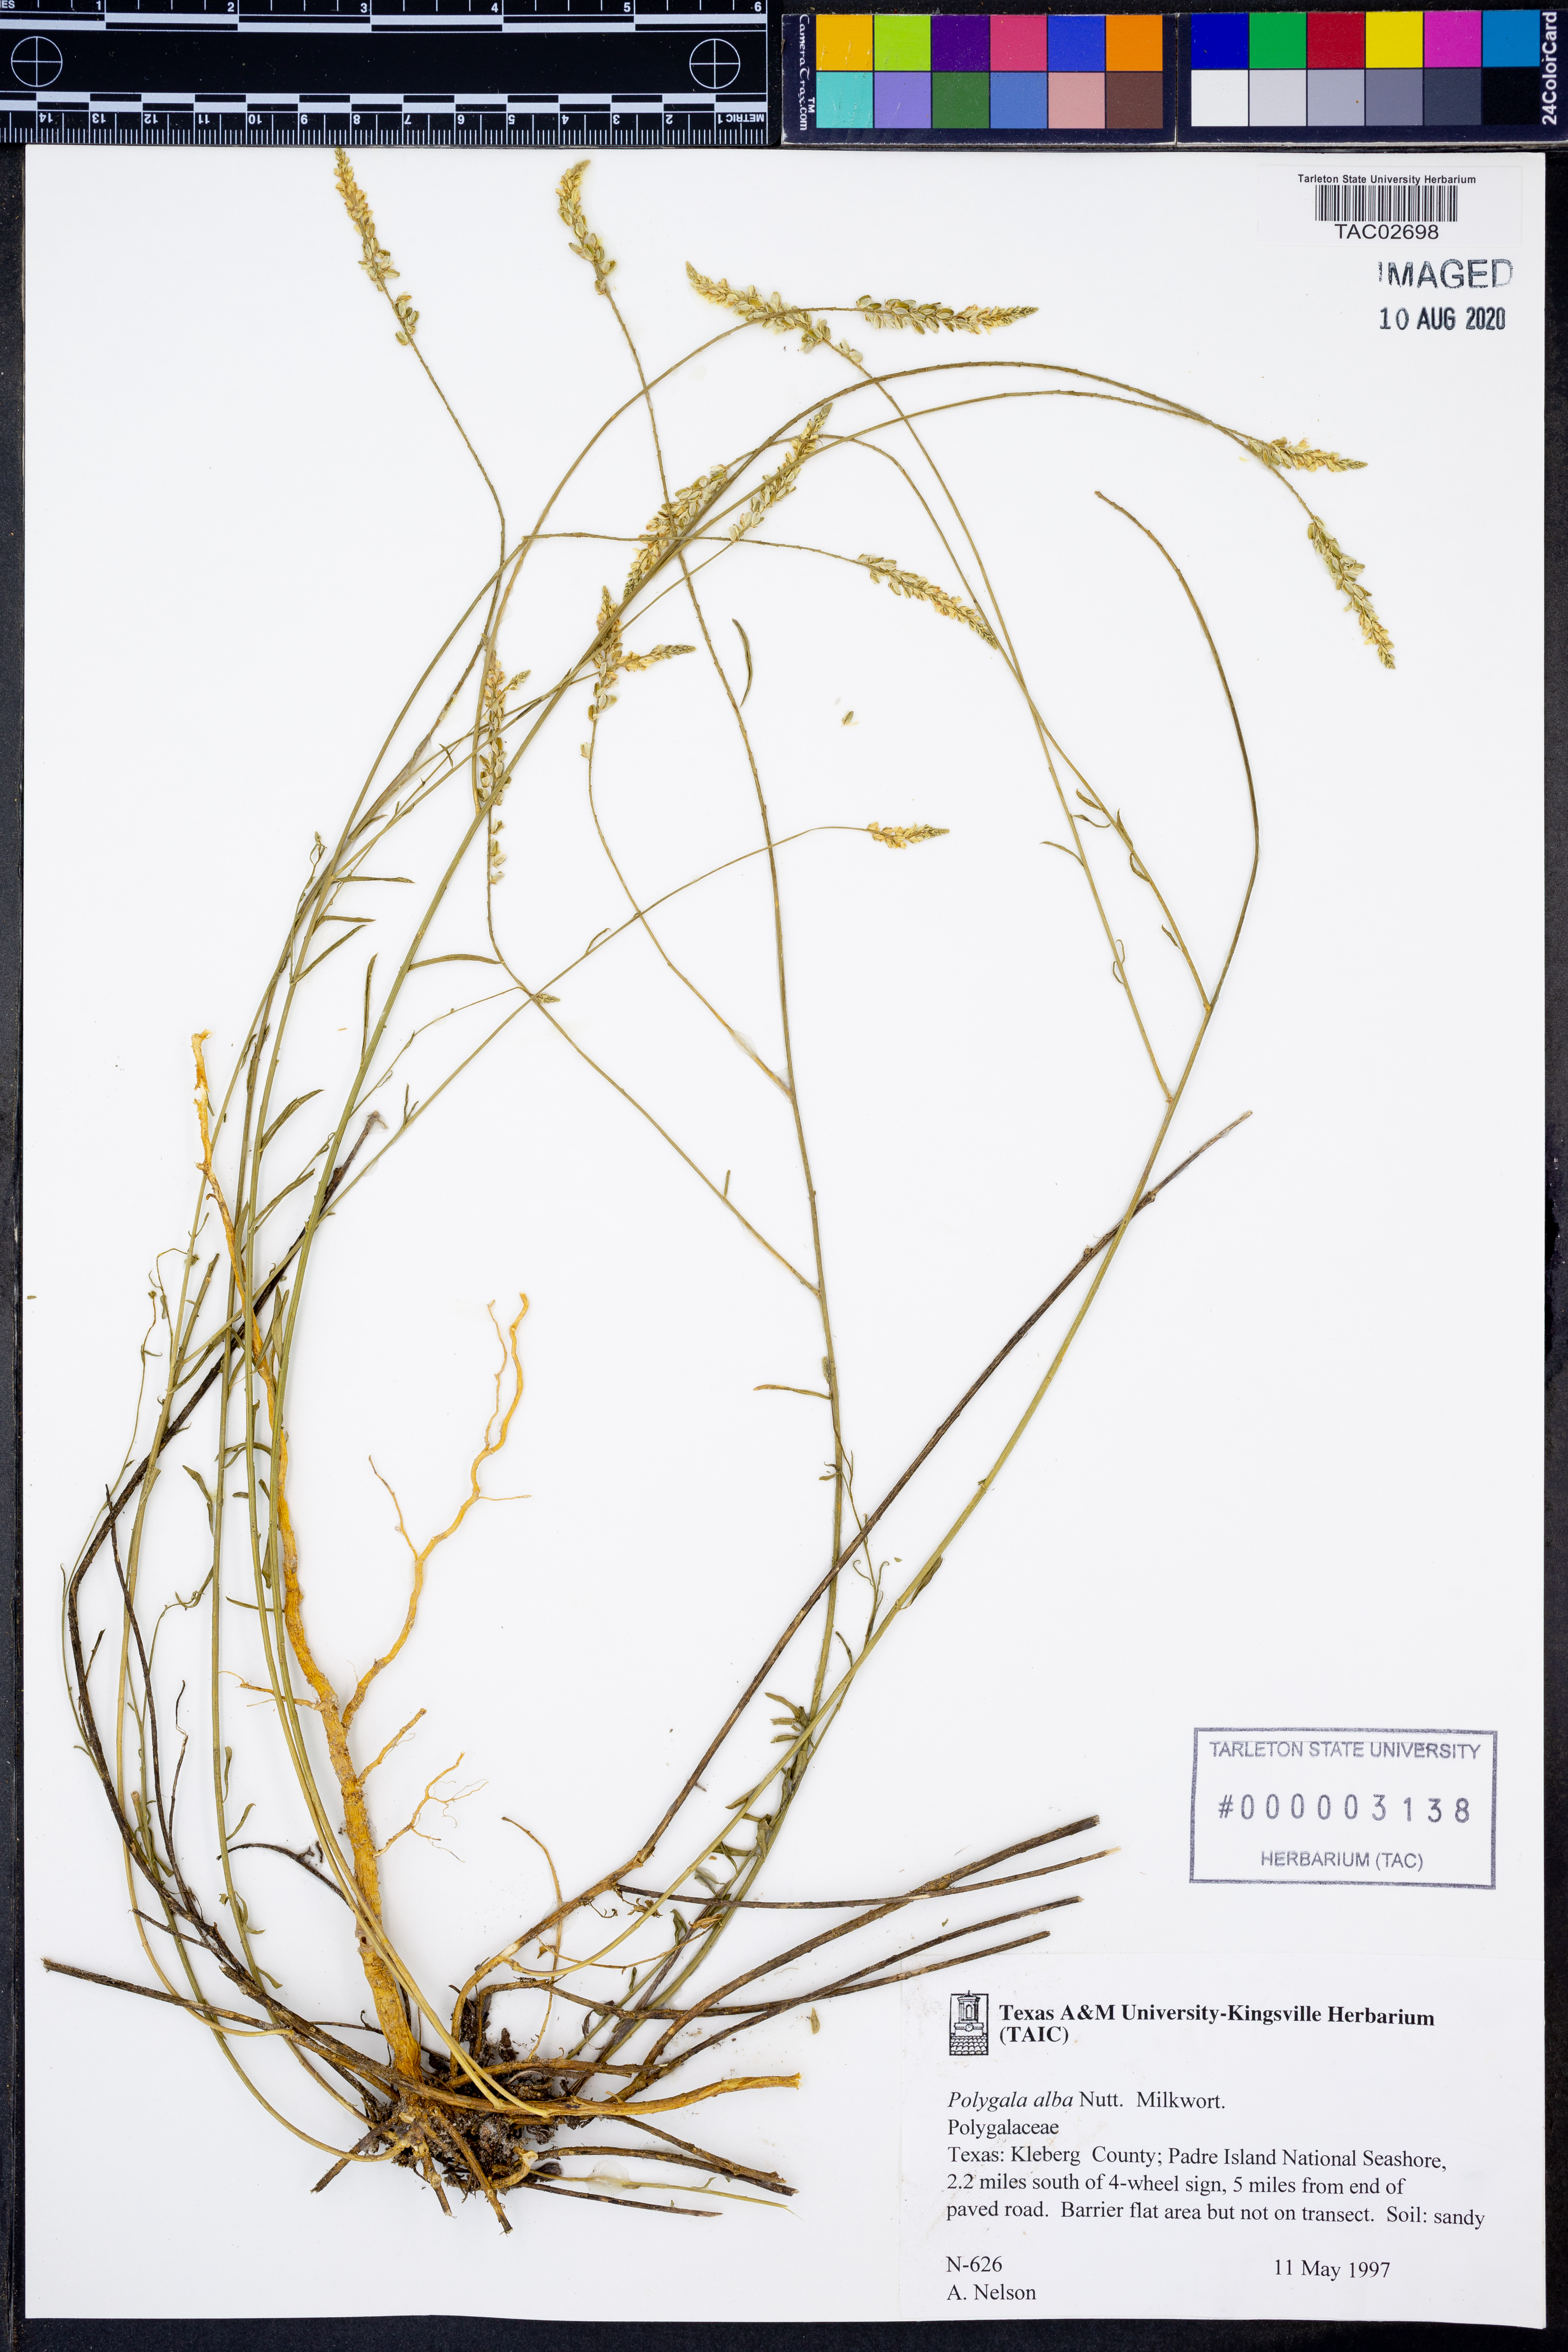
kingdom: Plantae
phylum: Tracheophyta
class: Magnoliopsida
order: Fabales
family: Polygalaceae
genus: Polygala
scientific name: Polygala alba
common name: White milkwort
